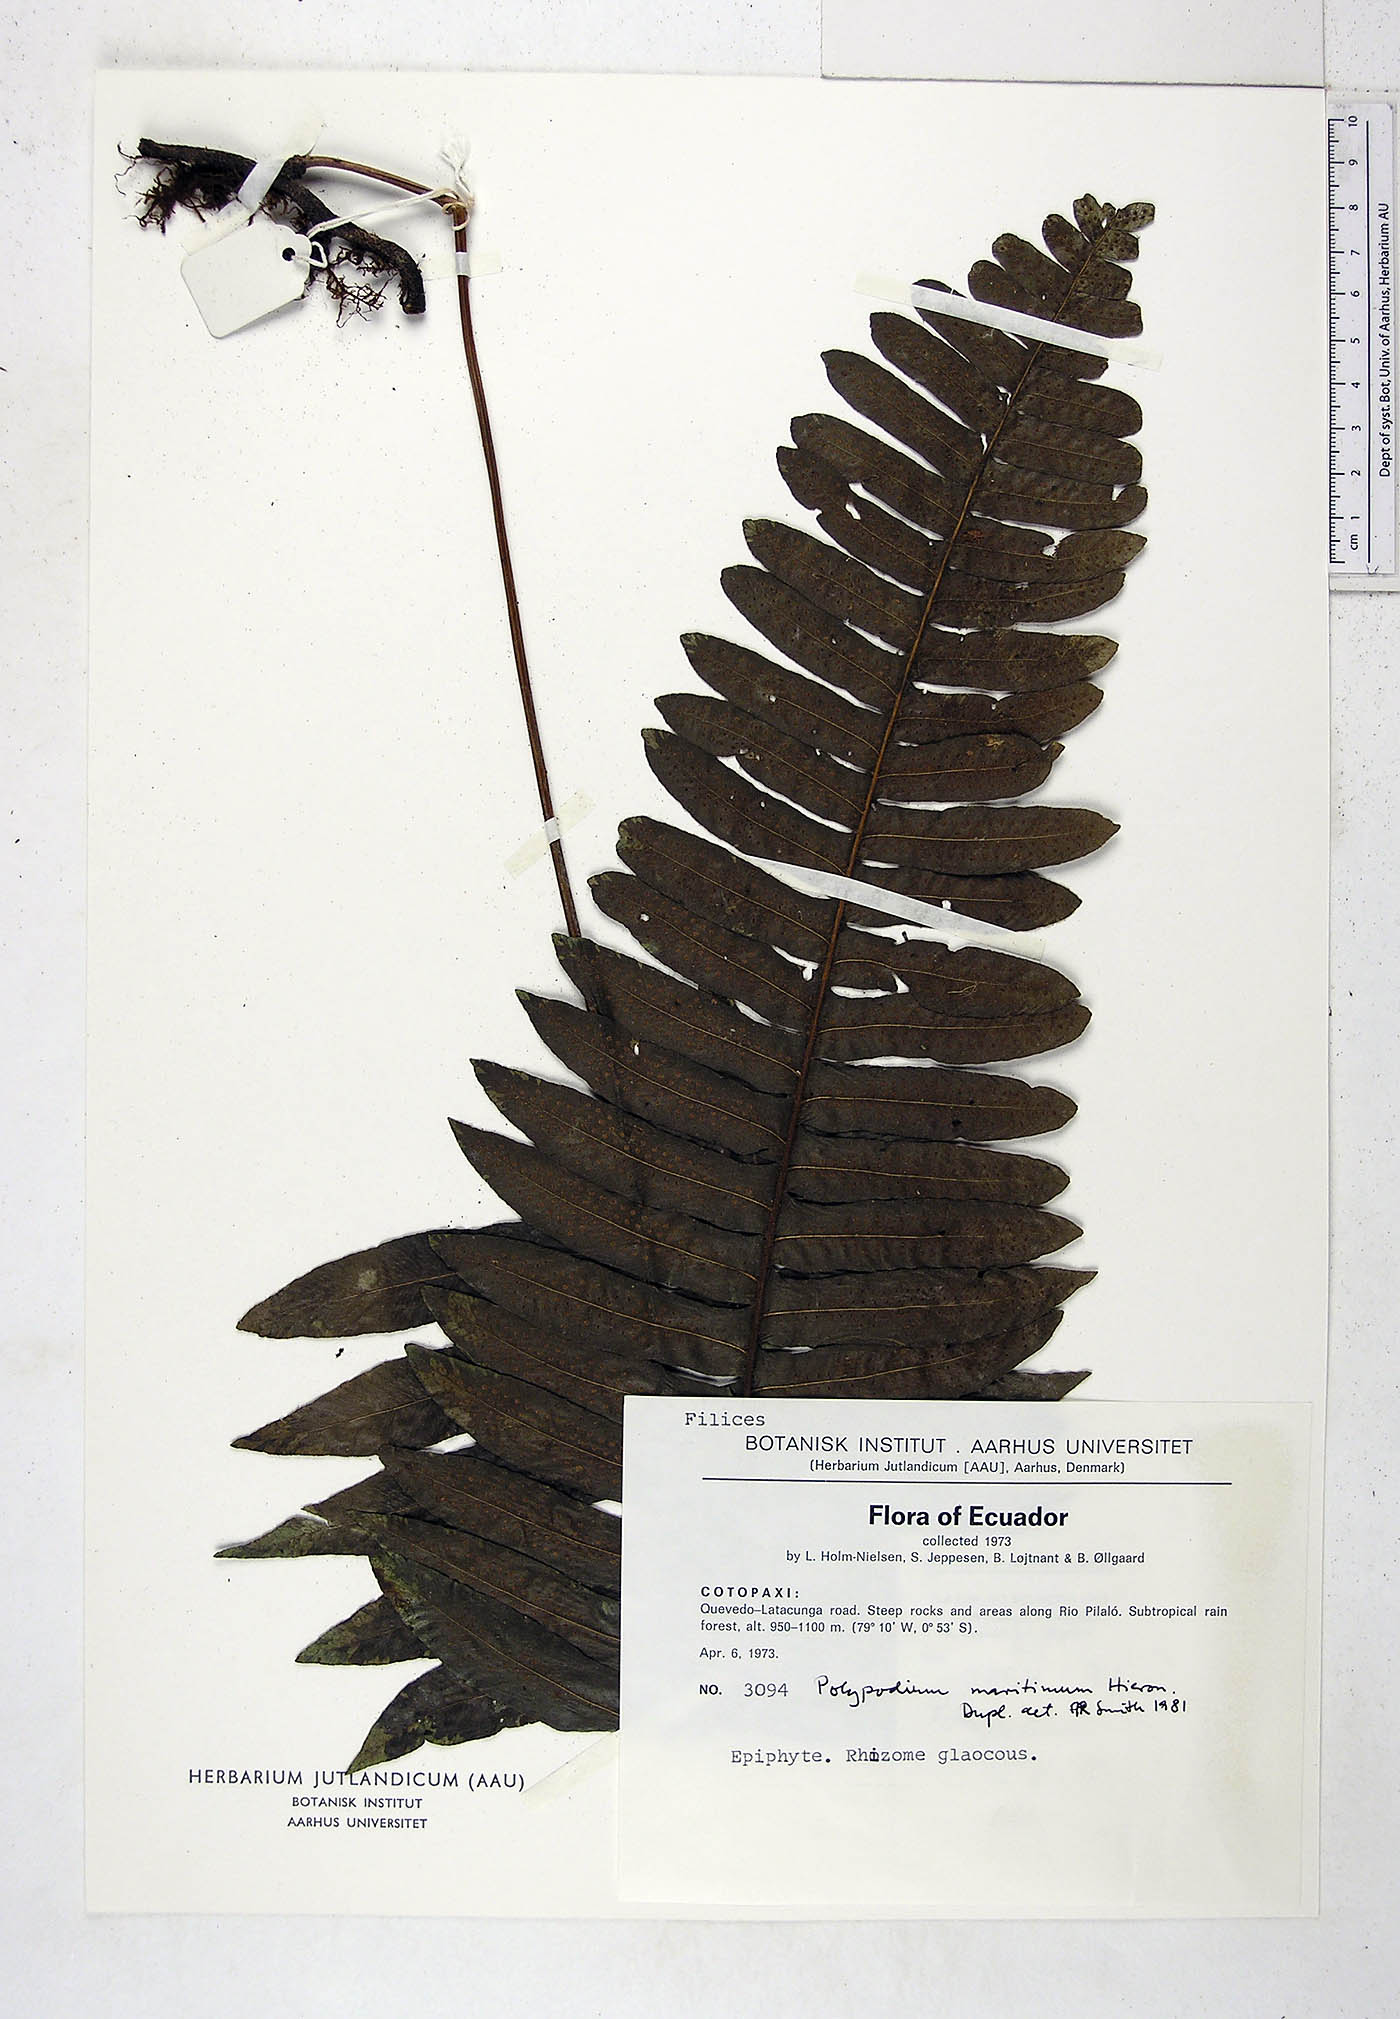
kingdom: Plantae
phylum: Tracheophyta
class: Polypodiopsida
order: Polypodiales
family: Polypodiaceae
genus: Serpocaulon
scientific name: Serpocaulon maritimum
